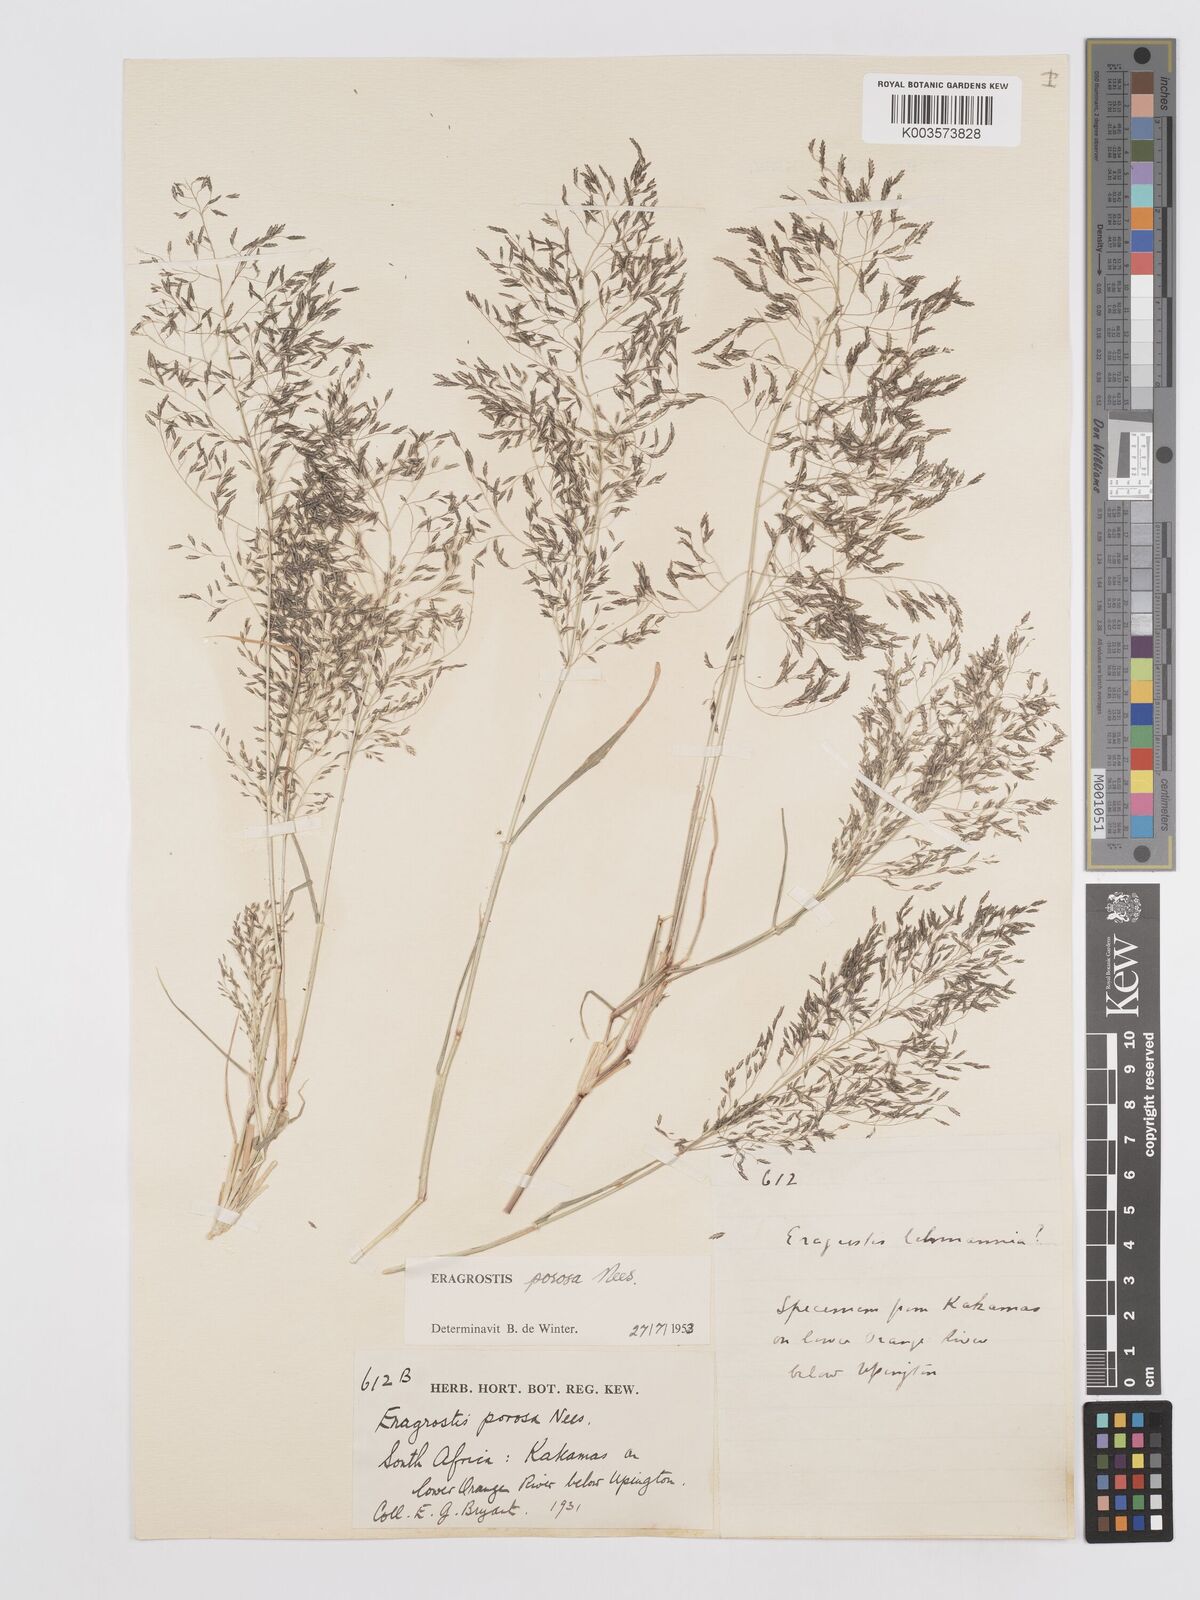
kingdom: Plantae
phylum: Tracheophyta
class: Liliopsida
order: Poales
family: Poaceae
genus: Eragrostis
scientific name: Eragrostis porosa
